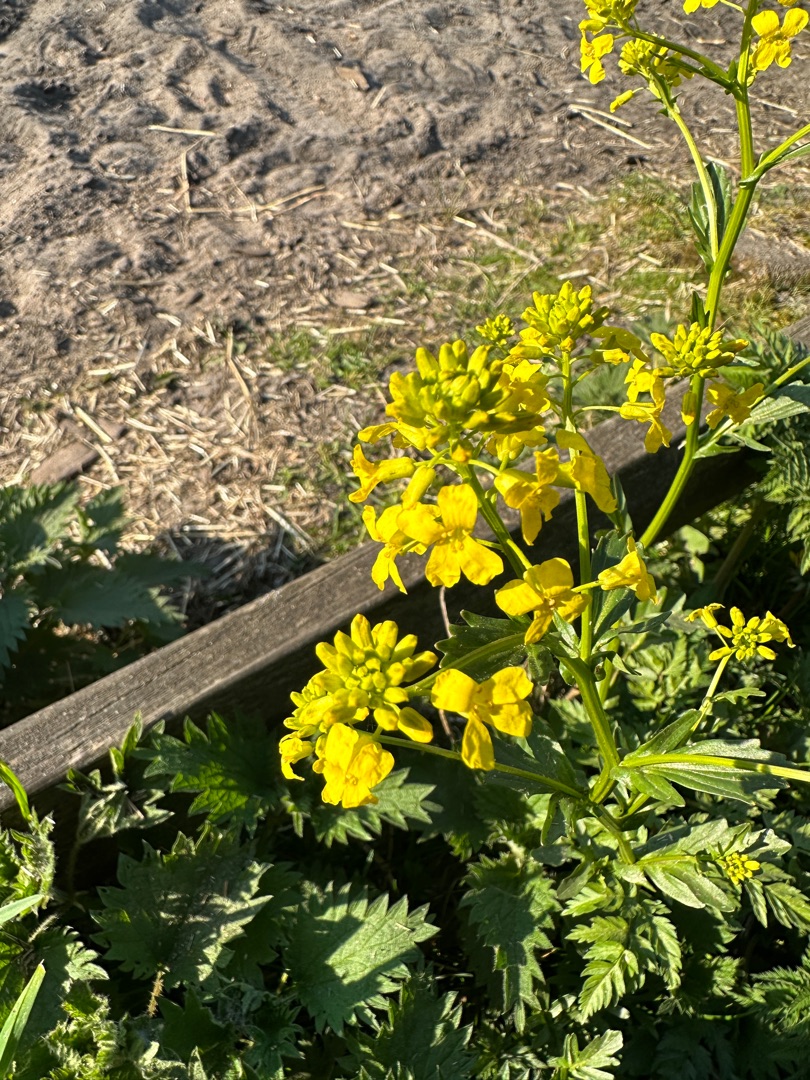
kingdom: Plantae
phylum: Tracheophyta
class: Magnoliopsida
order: Brassicales
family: Brassicaceae
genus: Barbarea
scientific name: Barbarea vulgaris
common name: Udspærret vinterkarse
